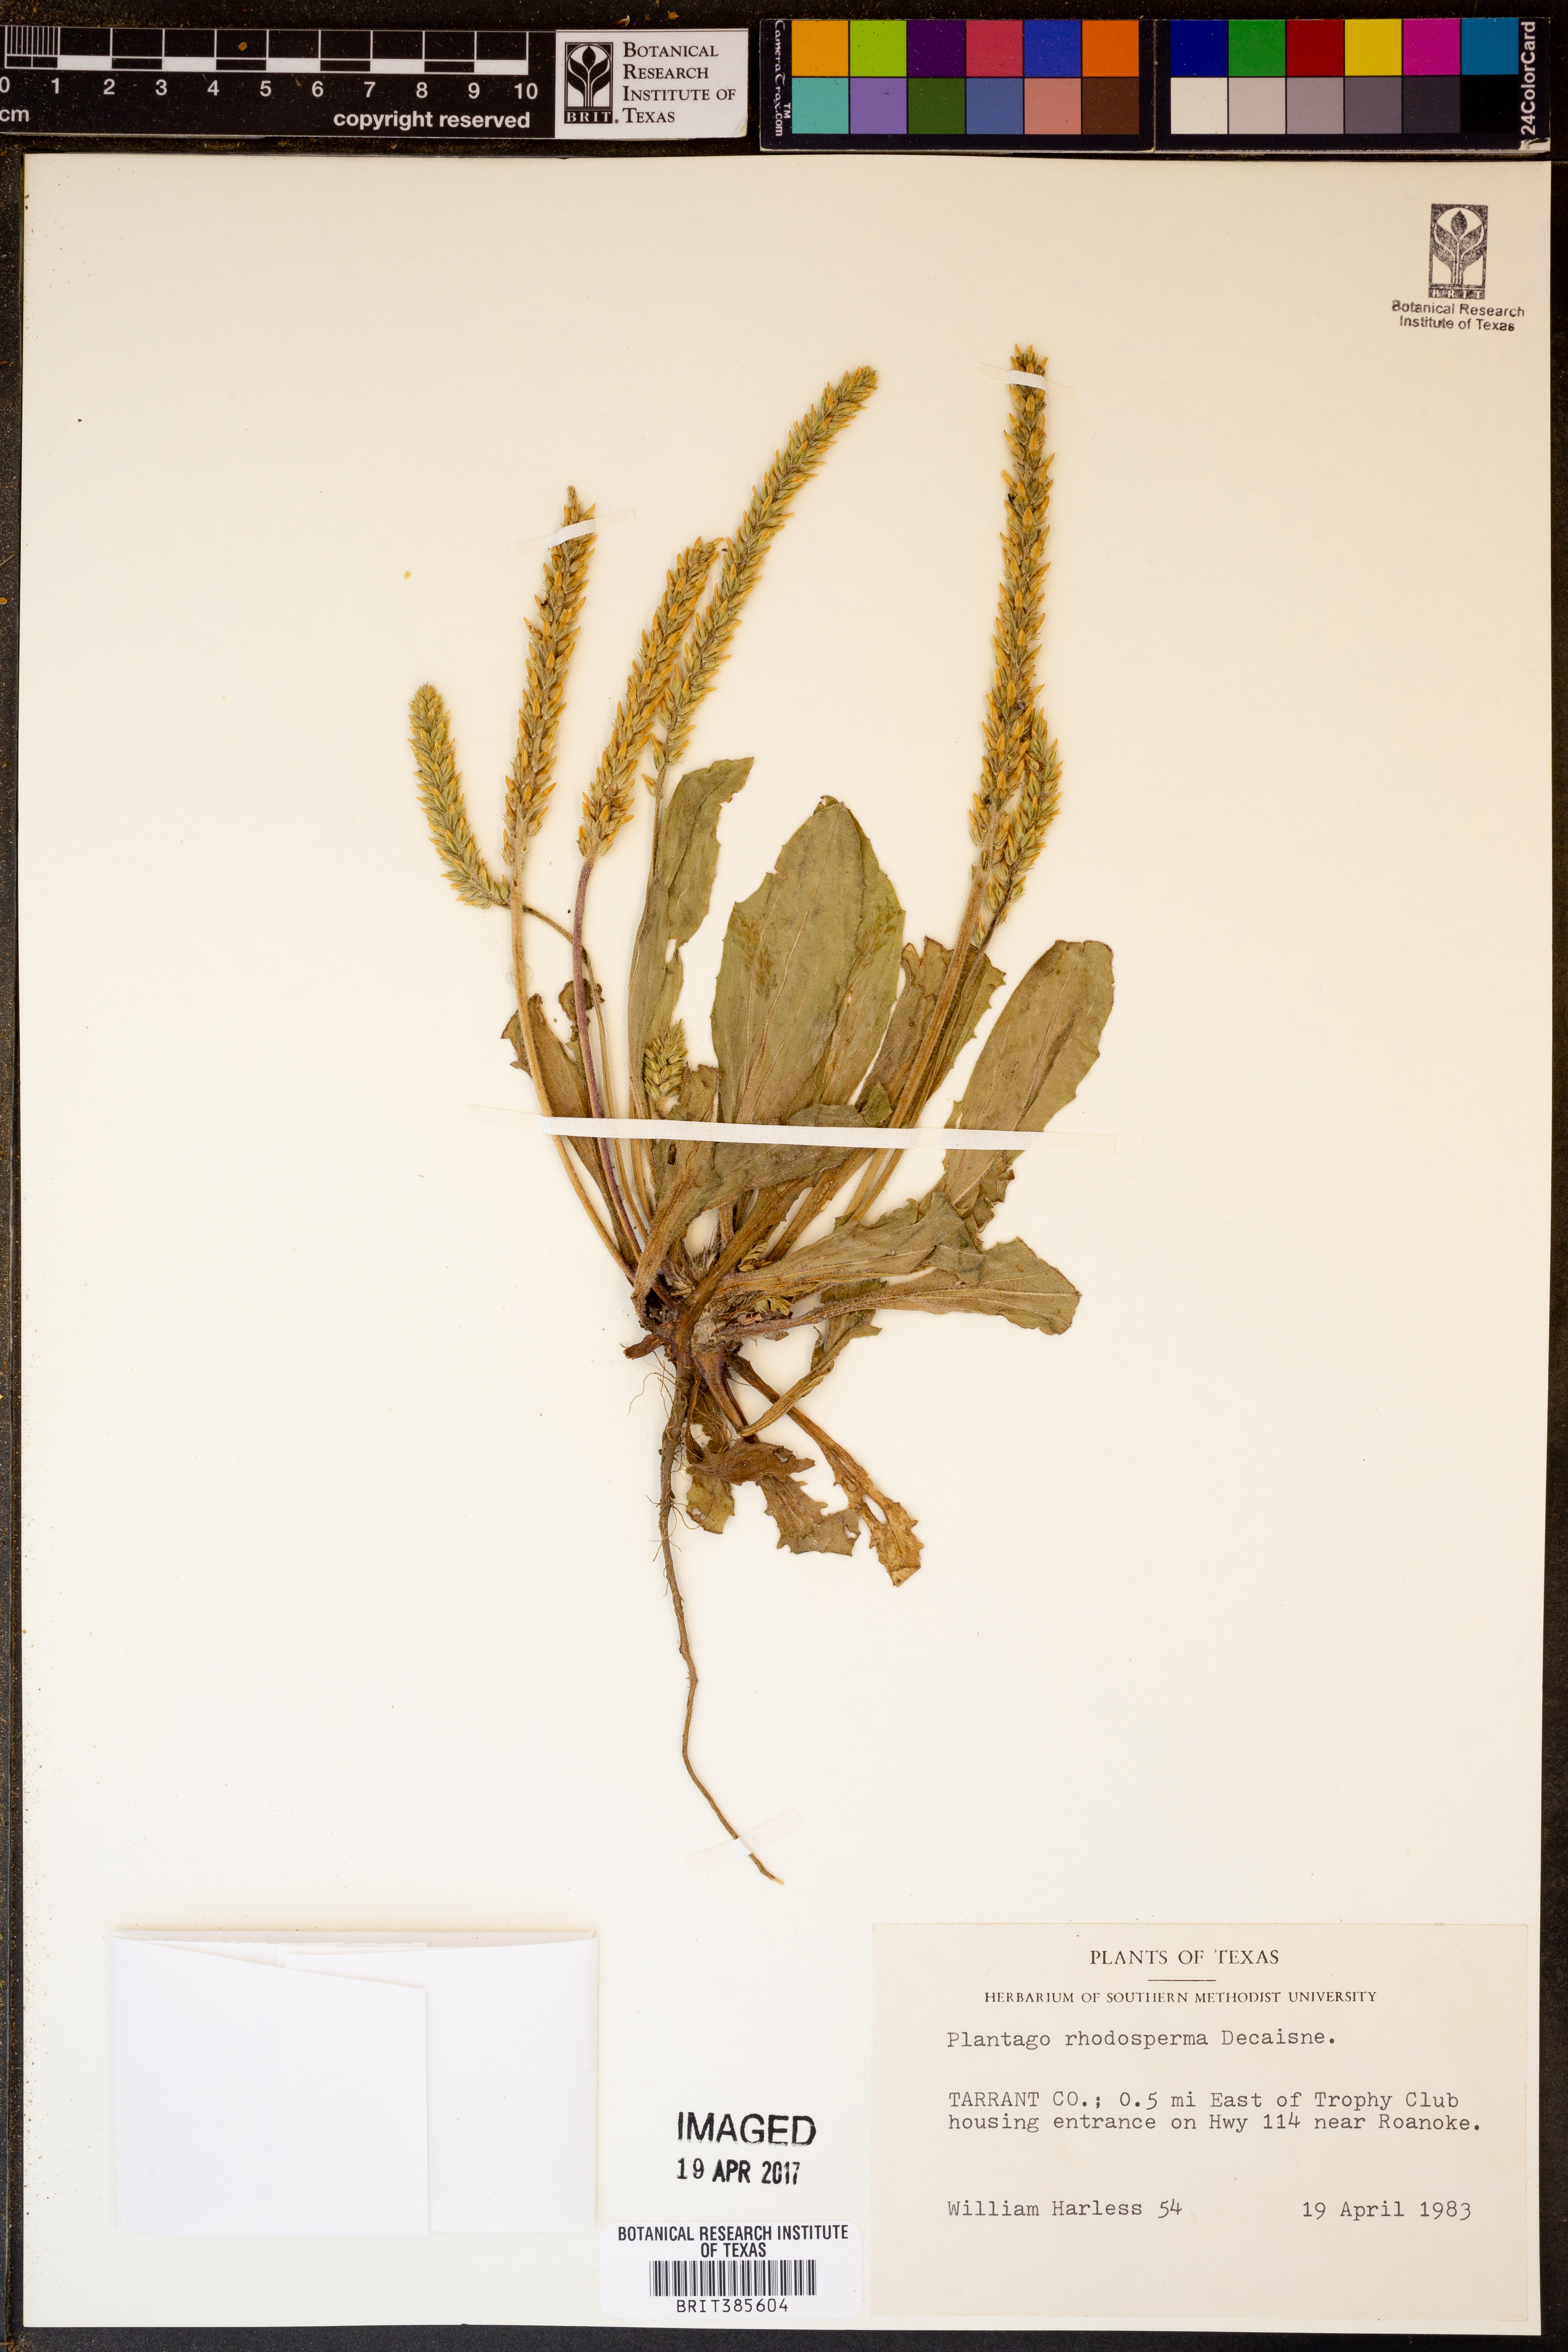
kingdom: Plantae
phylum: Tracheophyta
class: Magnoliopsida
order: Lamiales
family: Plantaginaceae
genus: Plantago
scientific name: Plantago rhodosperma
